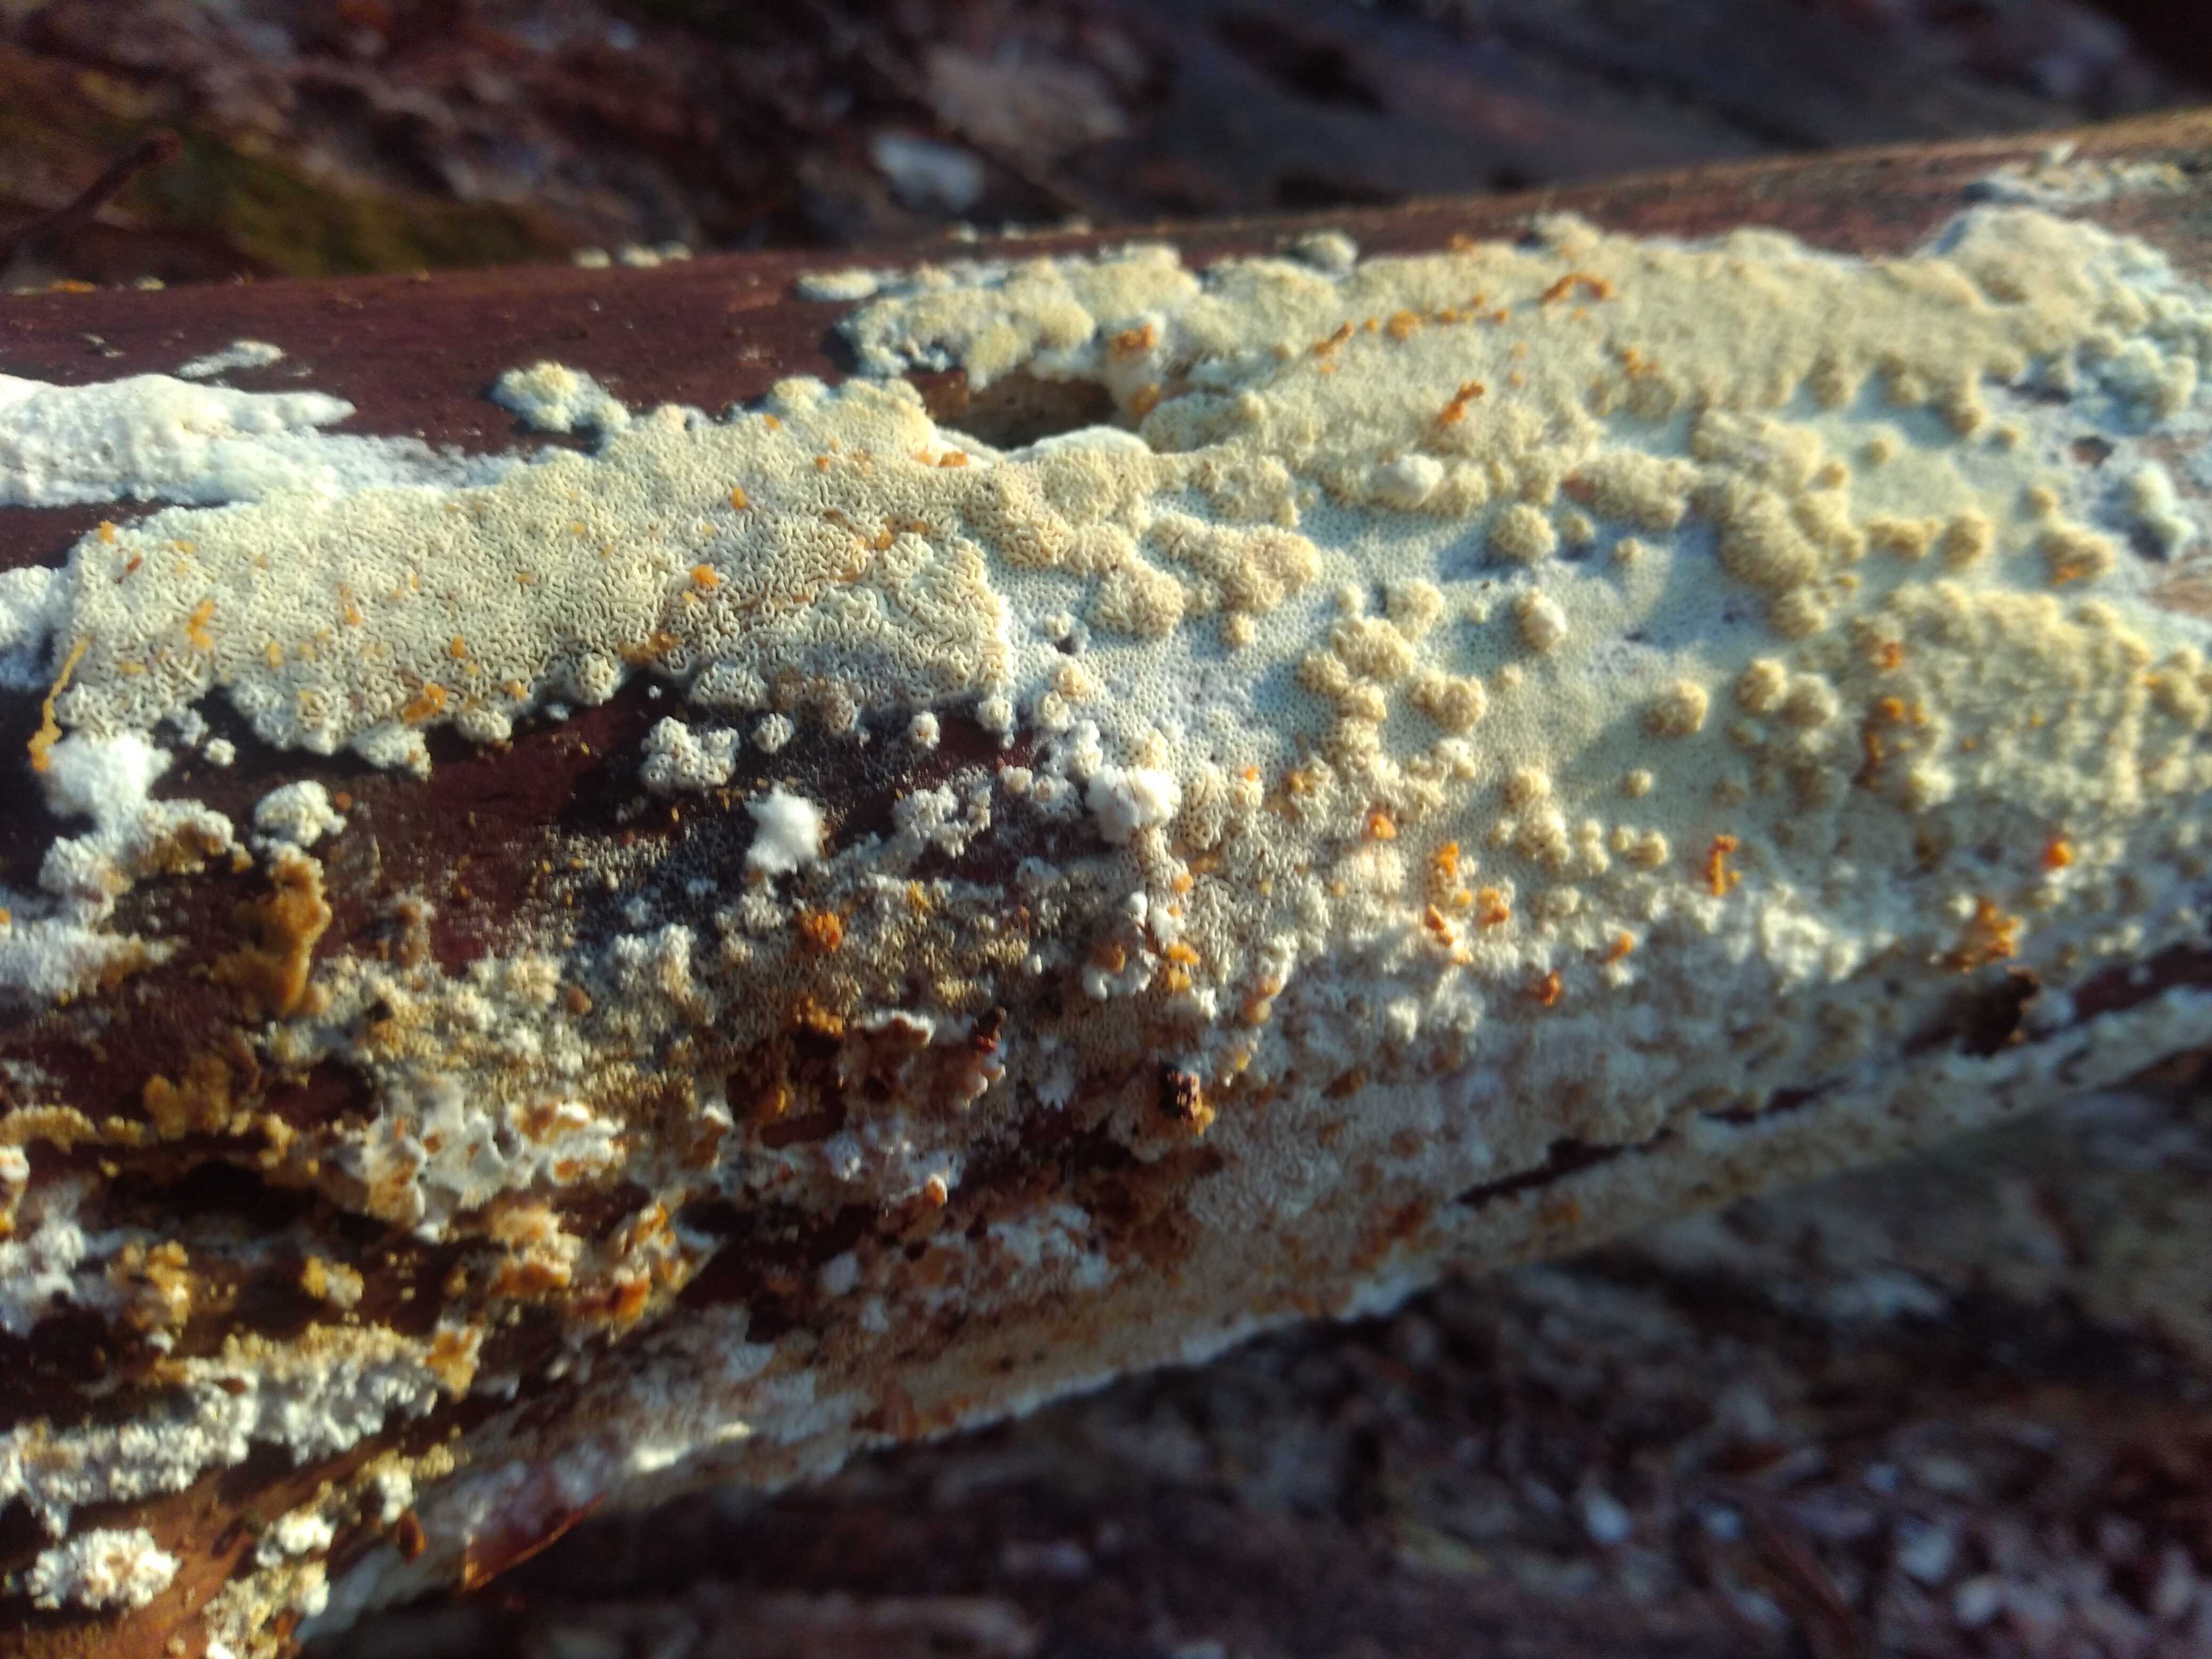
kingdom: Fungi
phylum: Basidiomycota
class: Agaricomycetes
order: Hymenochaetales
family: Schizoporaceae
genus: Xylodon
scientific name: Xylodon subtropicus
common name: labyrint-tandsvamp
